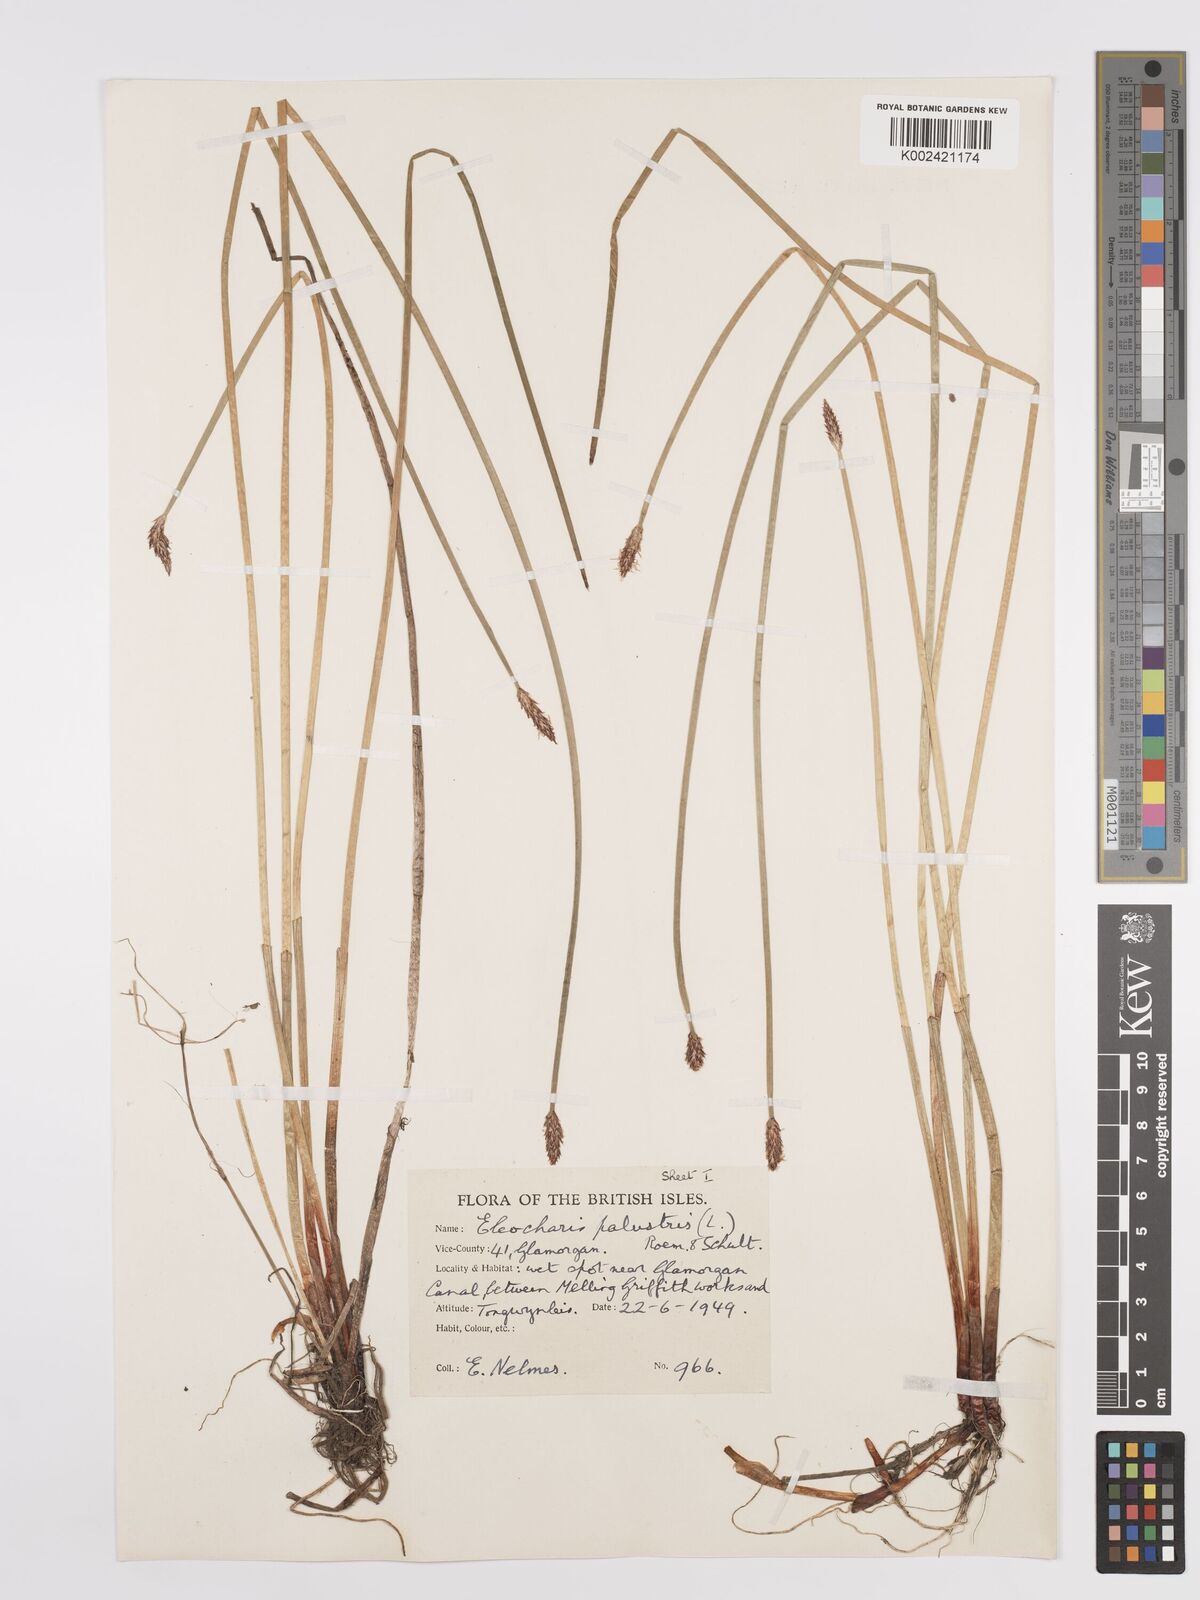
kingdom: Plantae
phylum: Tracheophyta
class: Liliopsida
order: Poales
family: Cyperaceae
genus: Eleocharis
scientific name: Eleocharis palustris
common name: Common spike-rush
